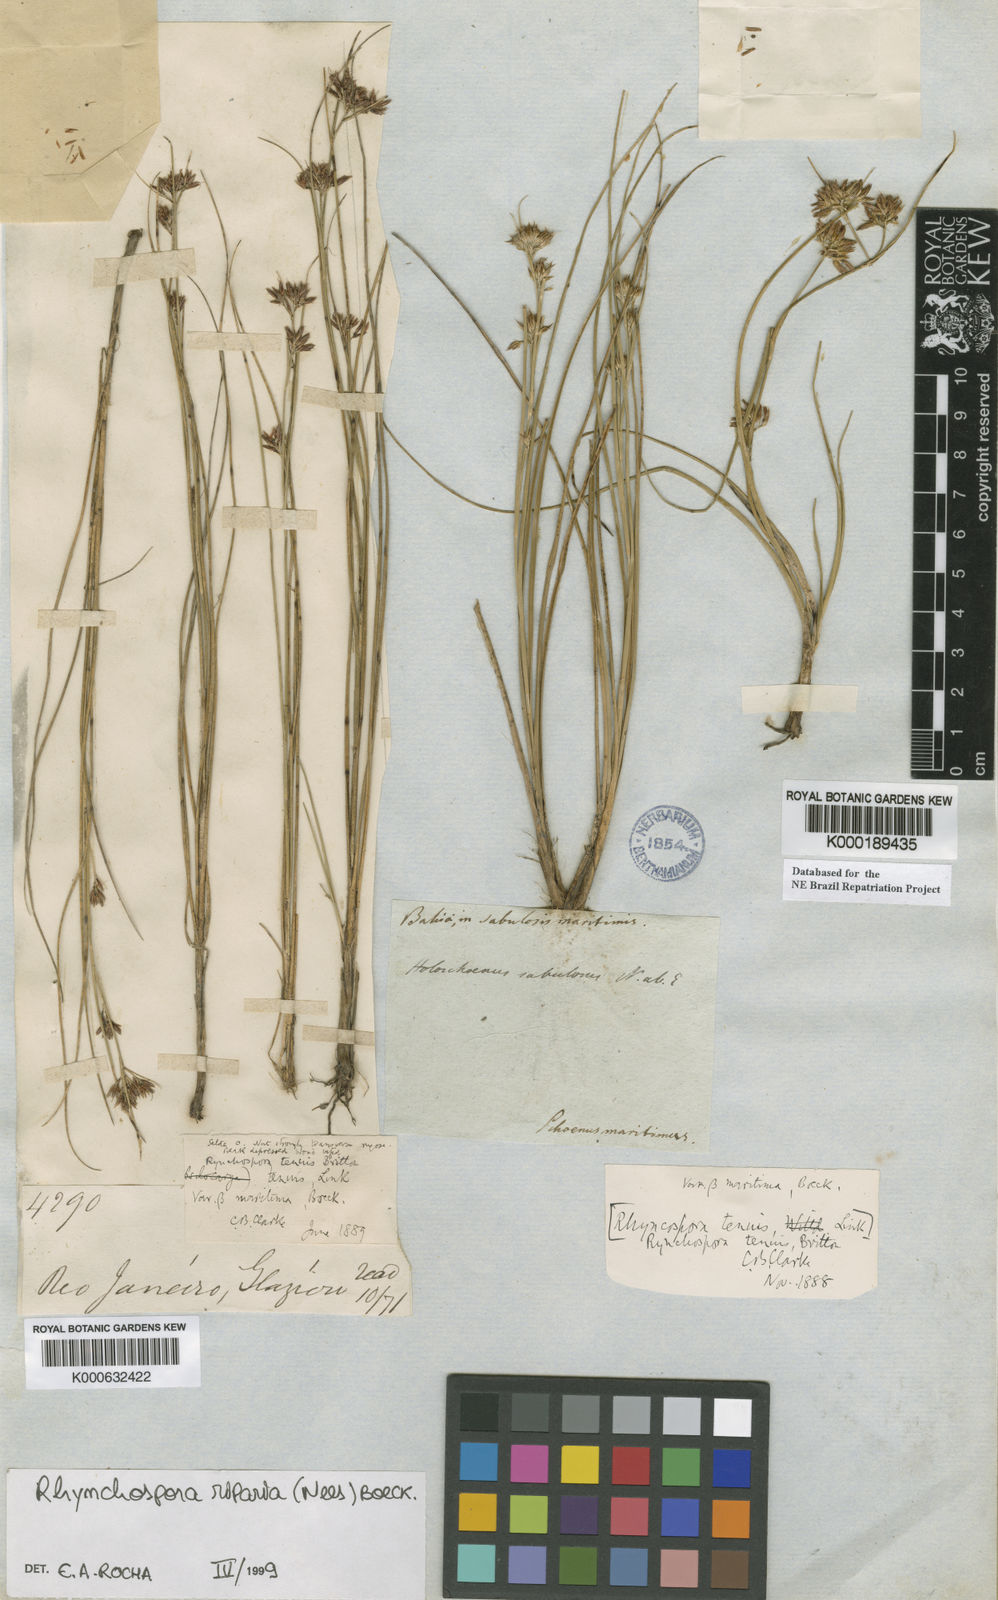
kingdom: Plantae
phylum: Tracheophyta
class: Liliopsida
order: Poales
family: Cyperaceae
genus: Rhynchospora
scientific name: Rhynchospora riparia
